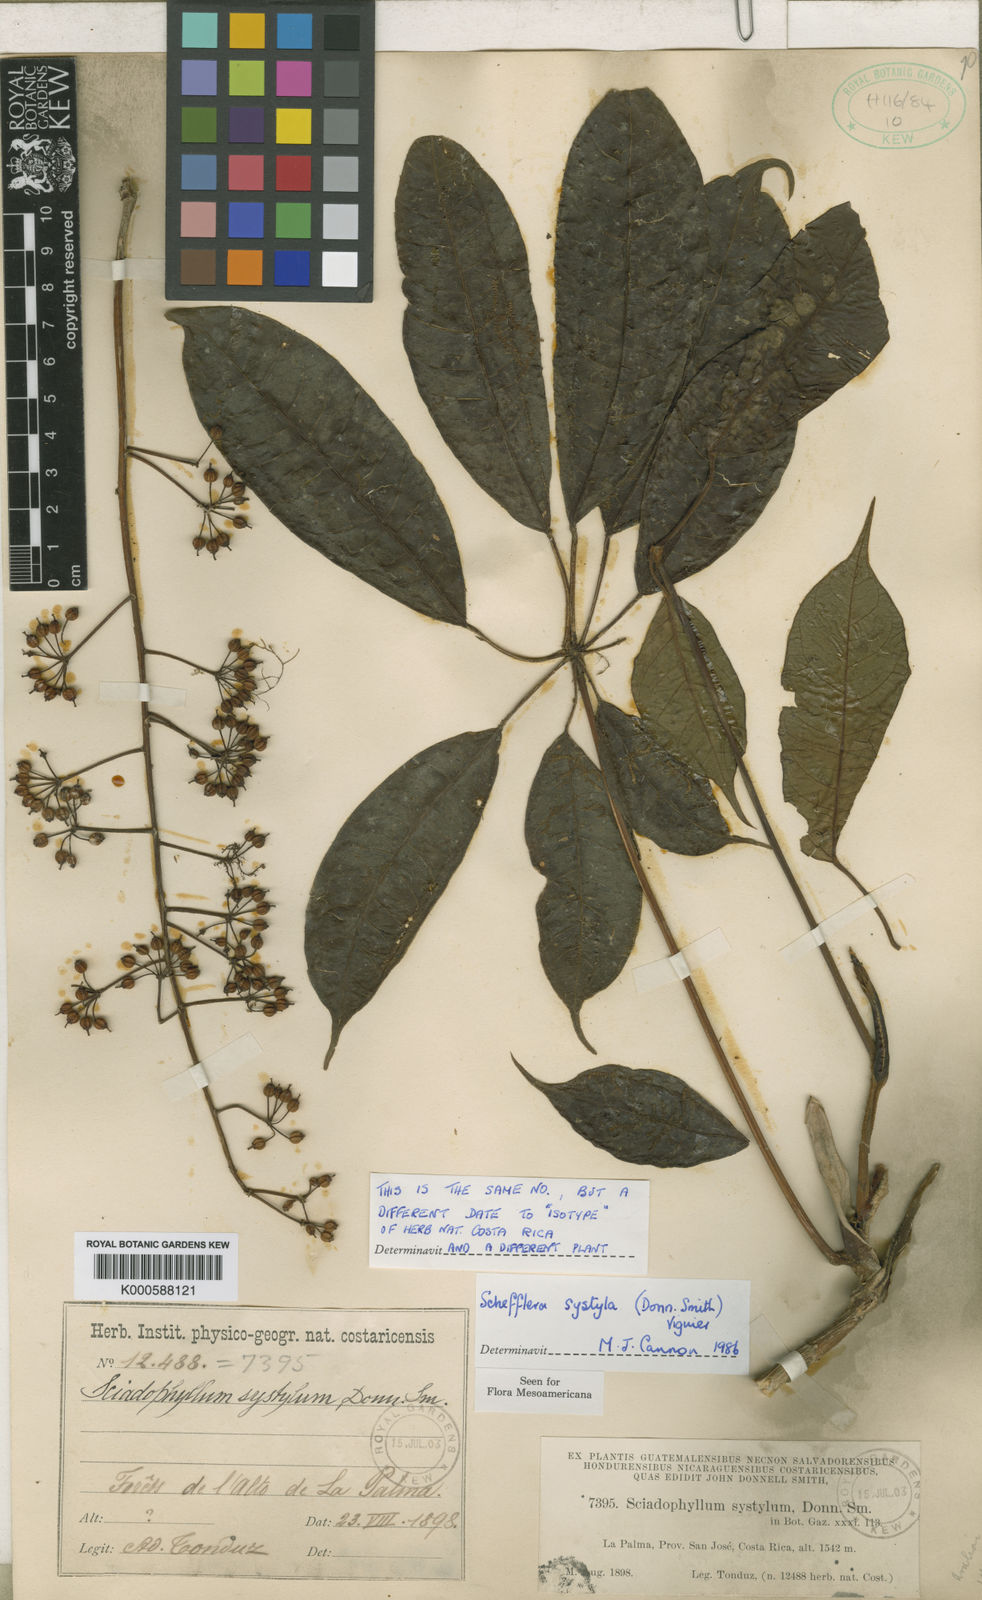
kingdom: Plantae
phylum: Tracheophyta
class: Magnoliopsida
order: Apiales
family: Araliaceae
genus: Sciodaphyllum
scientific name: Sciodaphyllum systylum
